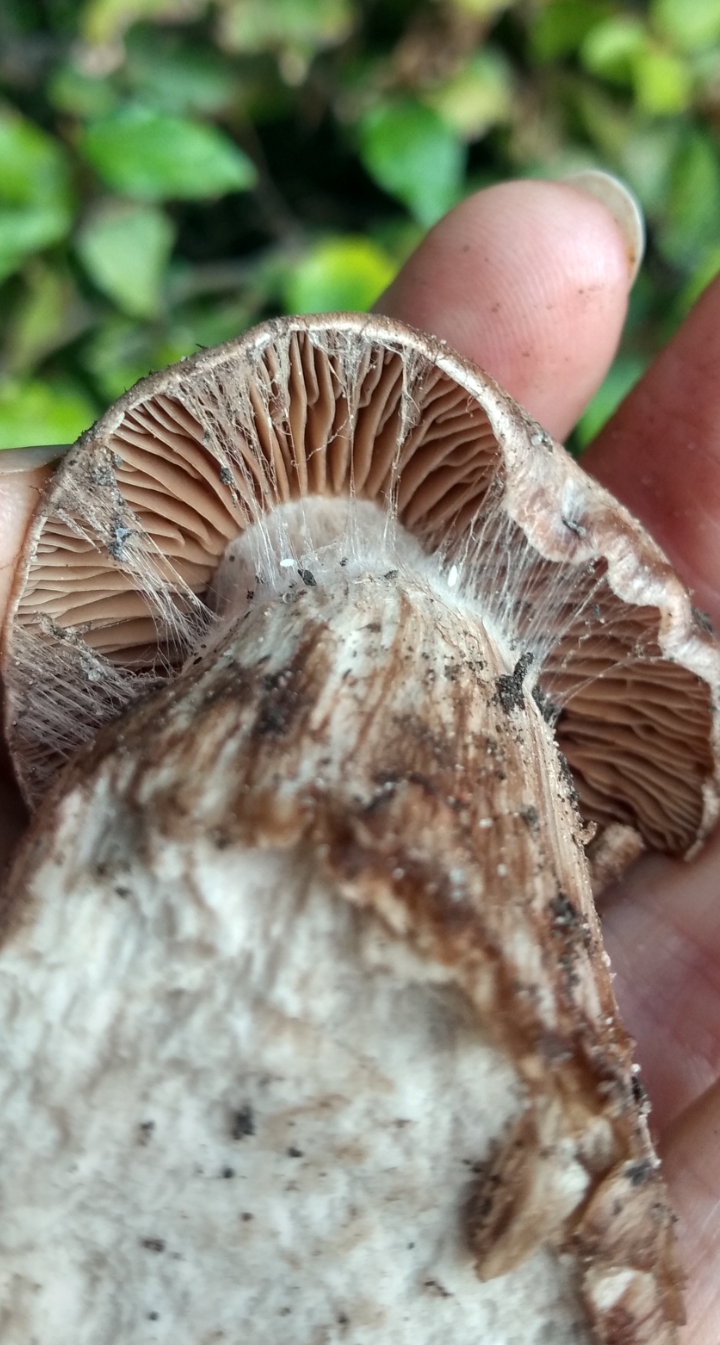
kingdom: Fungi
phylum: Basidiomycota
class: Agaricomycetes
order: Agaricales
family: Cortinariaceae
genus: Cortinarius
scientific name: Cortinarius
